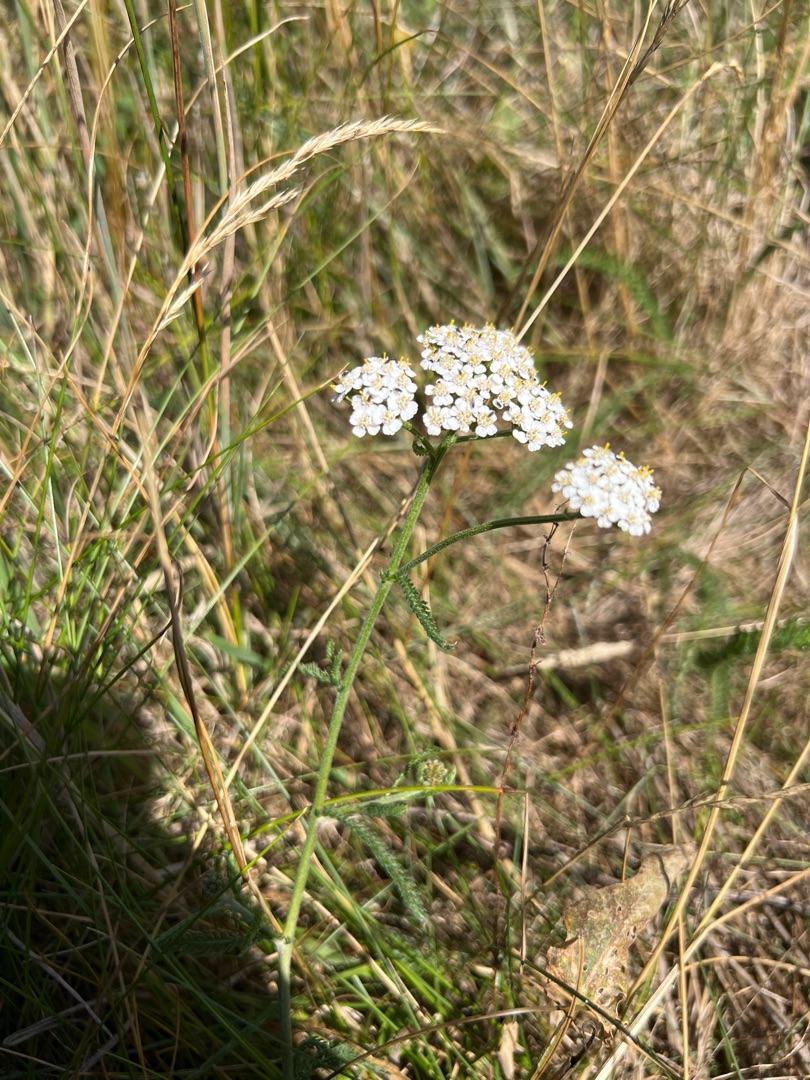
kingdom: Plantae
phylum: Tracheophyta
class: Magnoliopsida
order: Asterales
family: Asteraceae
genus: Achillea
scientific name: Achillea millefolium
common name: Almindelig røllike
